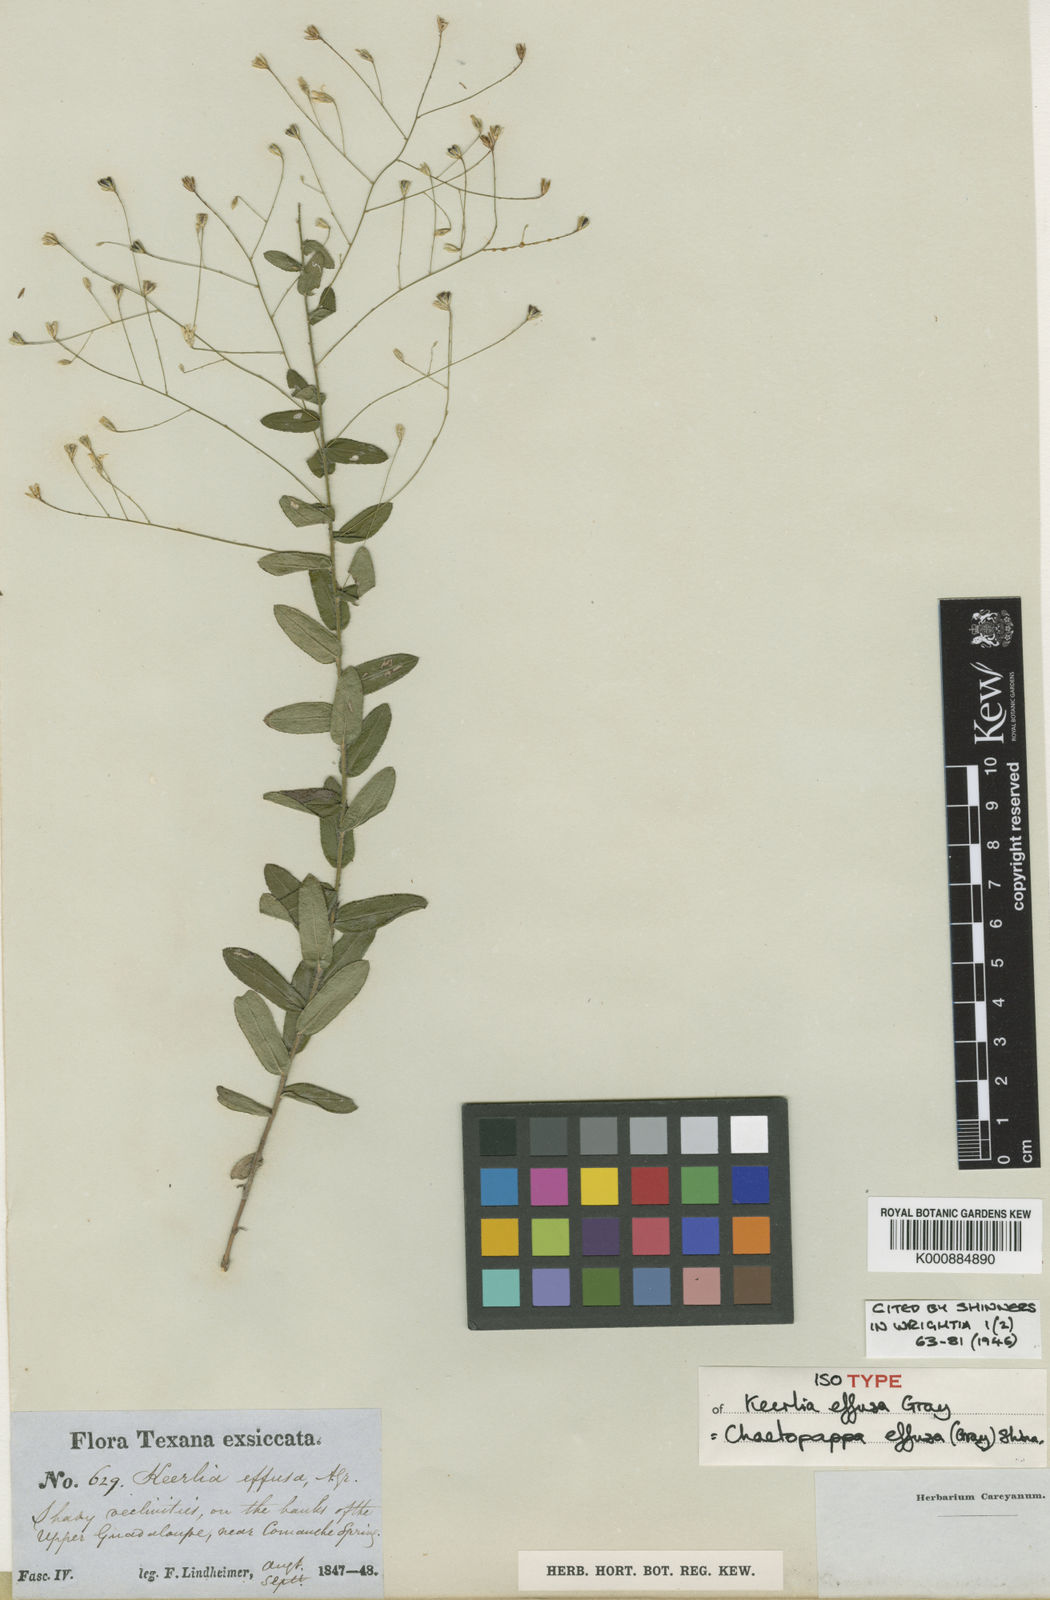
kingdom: Plantae
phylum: Tracheophyta
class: Magnoliopsida
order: Asterales
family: Asteraceae
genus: Chaetopappa
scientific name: Chaetopappa effusa
